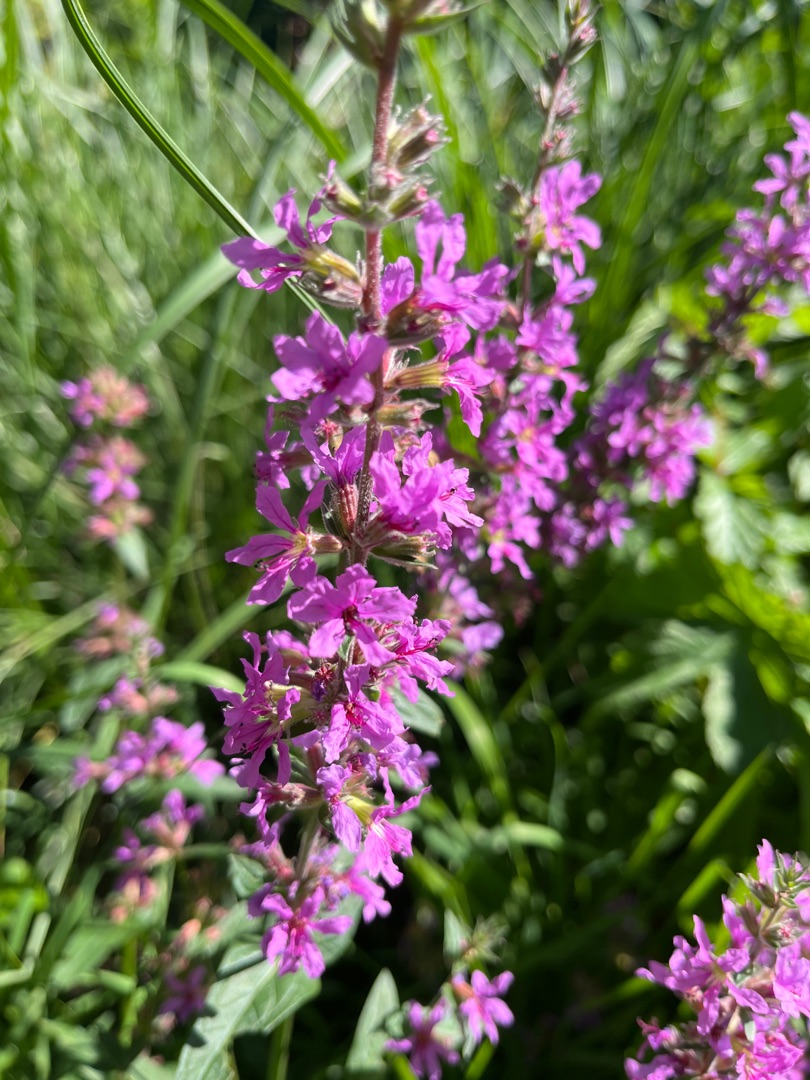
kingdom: Plantae
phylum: Tracheophyta
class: Magnoliopsida
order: Myrtales
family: Lythraceae
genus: Lythrum
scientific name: Lythrum salicaria
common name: Kattehale
